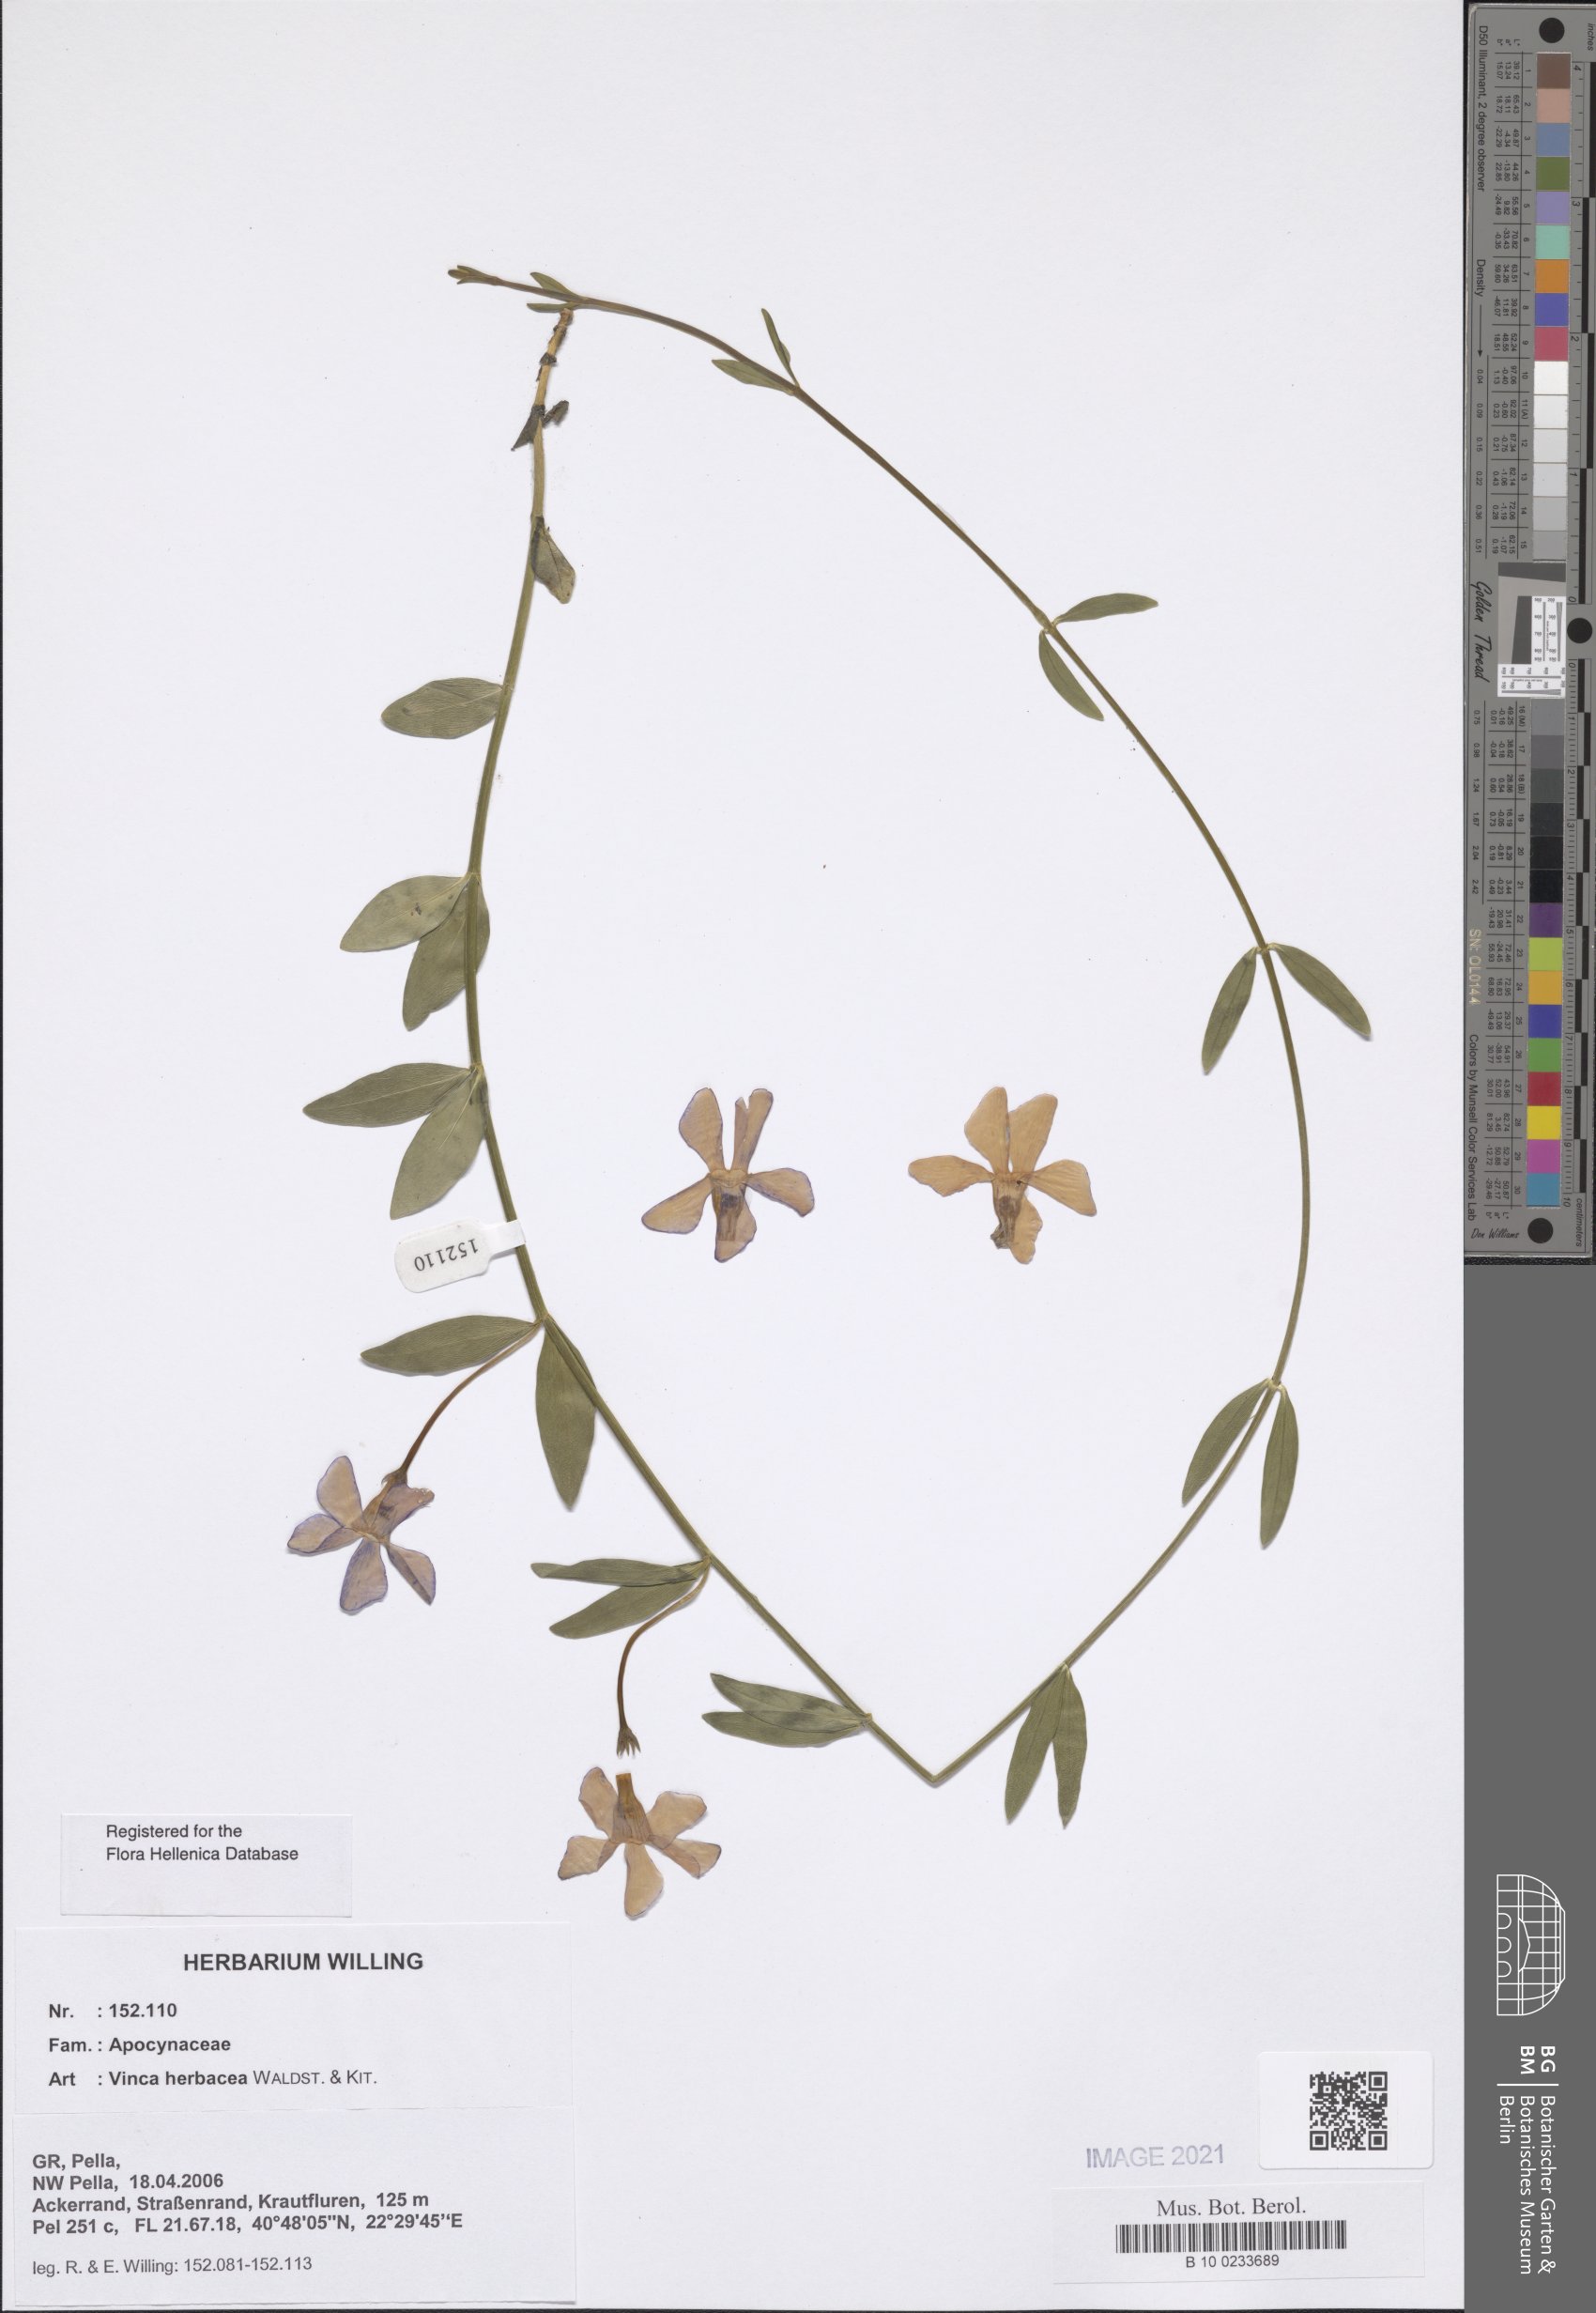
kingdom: Plantae
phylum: Tracheophyta
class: Magnoliopsida
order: Gentianales
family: Apocynaceae
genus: Vinca
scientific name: Vinca herbacea
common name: Herbaceous periwinkle
